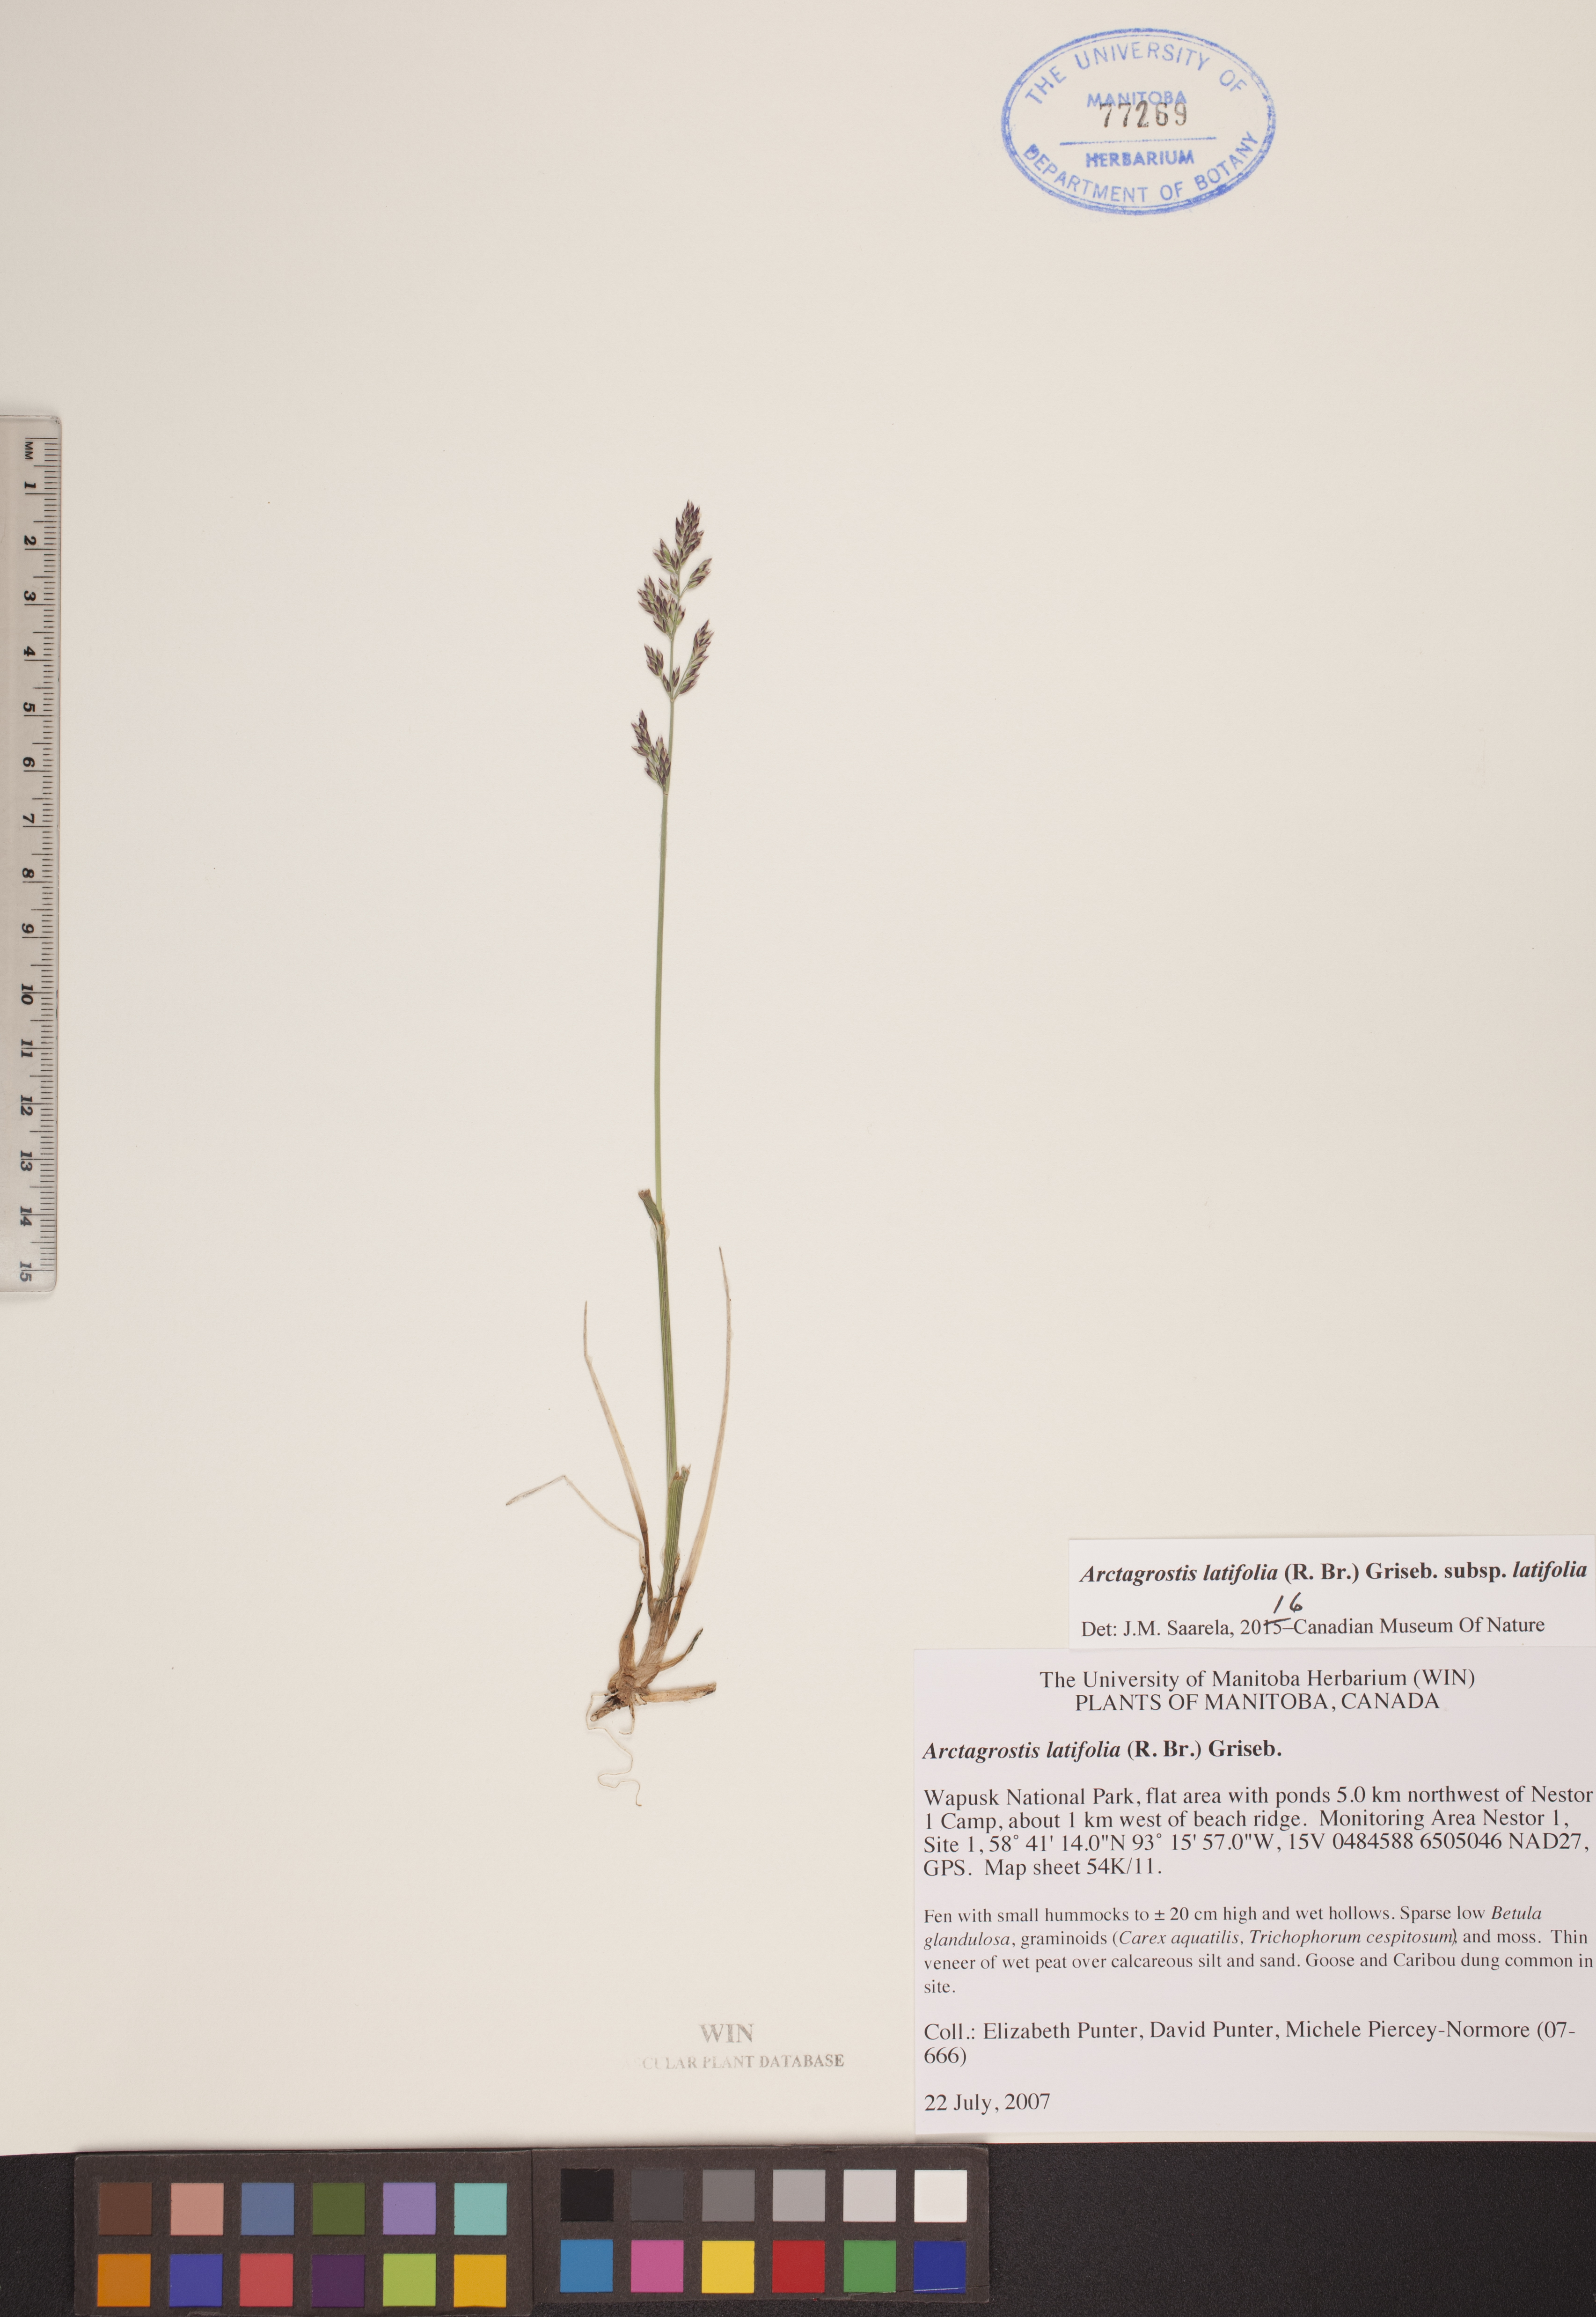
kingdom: Plantae
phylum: Tracheophyta
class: Liliopsida
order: Poales
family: Poaceae
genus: Arctagrostis
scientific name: Arctagrostis latifolia
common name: Arctic grass
